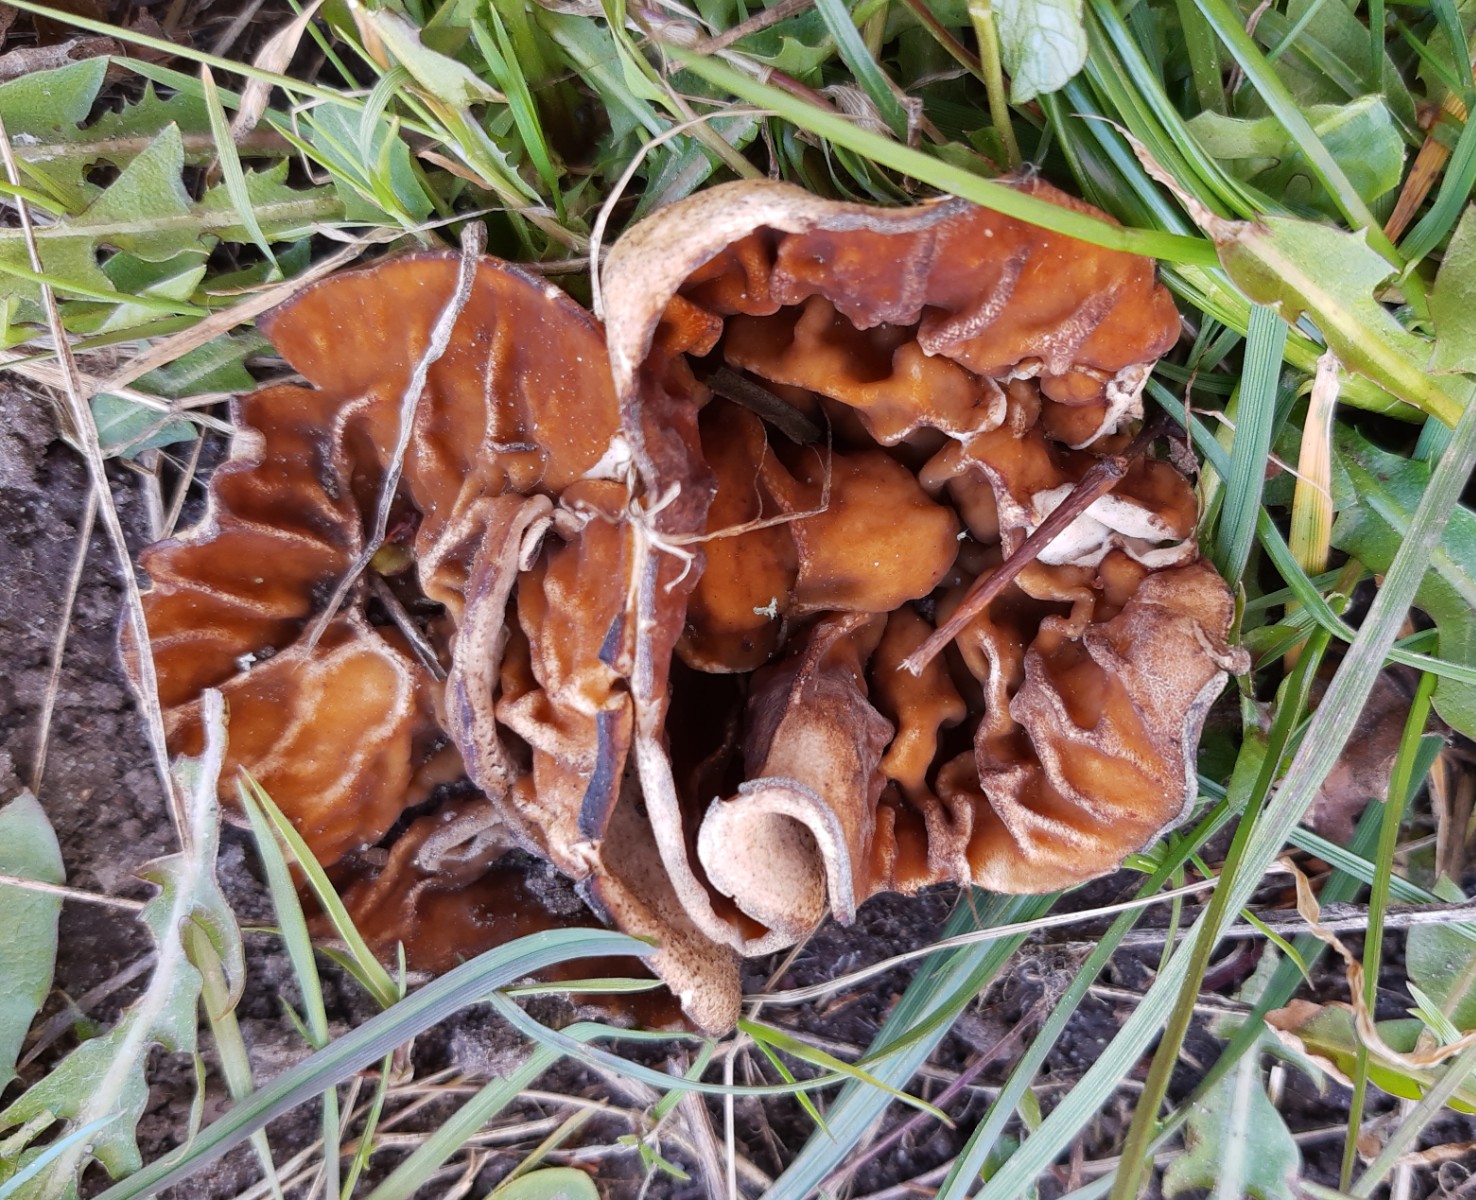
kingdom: Fungi
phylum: Ascomycota
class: Pezizomycetes
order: Pezizales
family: Morchellaceae
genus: Disciotis
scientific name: Disciotis venosa
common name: klor-bægermorkel
